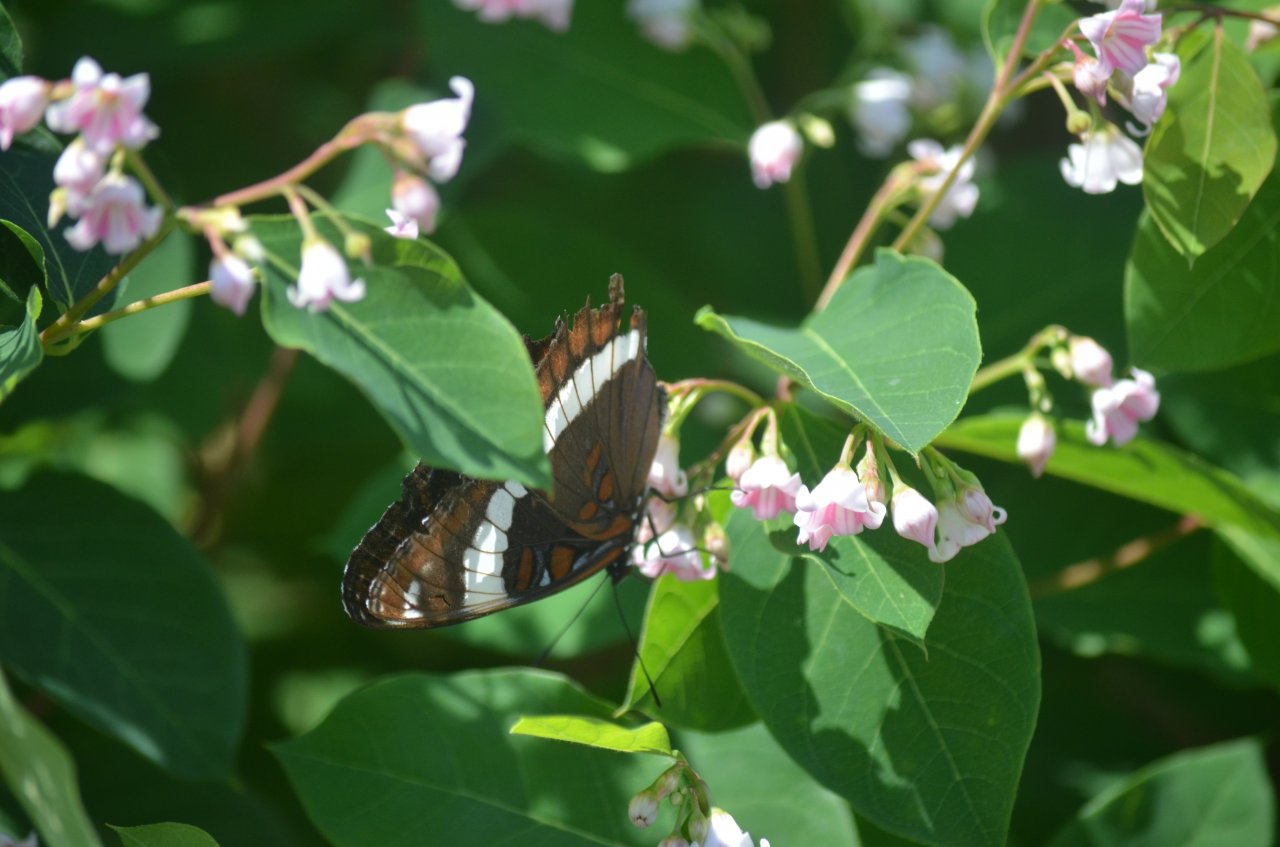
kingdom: Animalia
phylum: Arthropoda
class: Insecta
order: Lepidoptera
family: Nymphalidae
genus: Limenitis
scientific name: Limenitis arthemis
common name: Red-spotted Admiral
